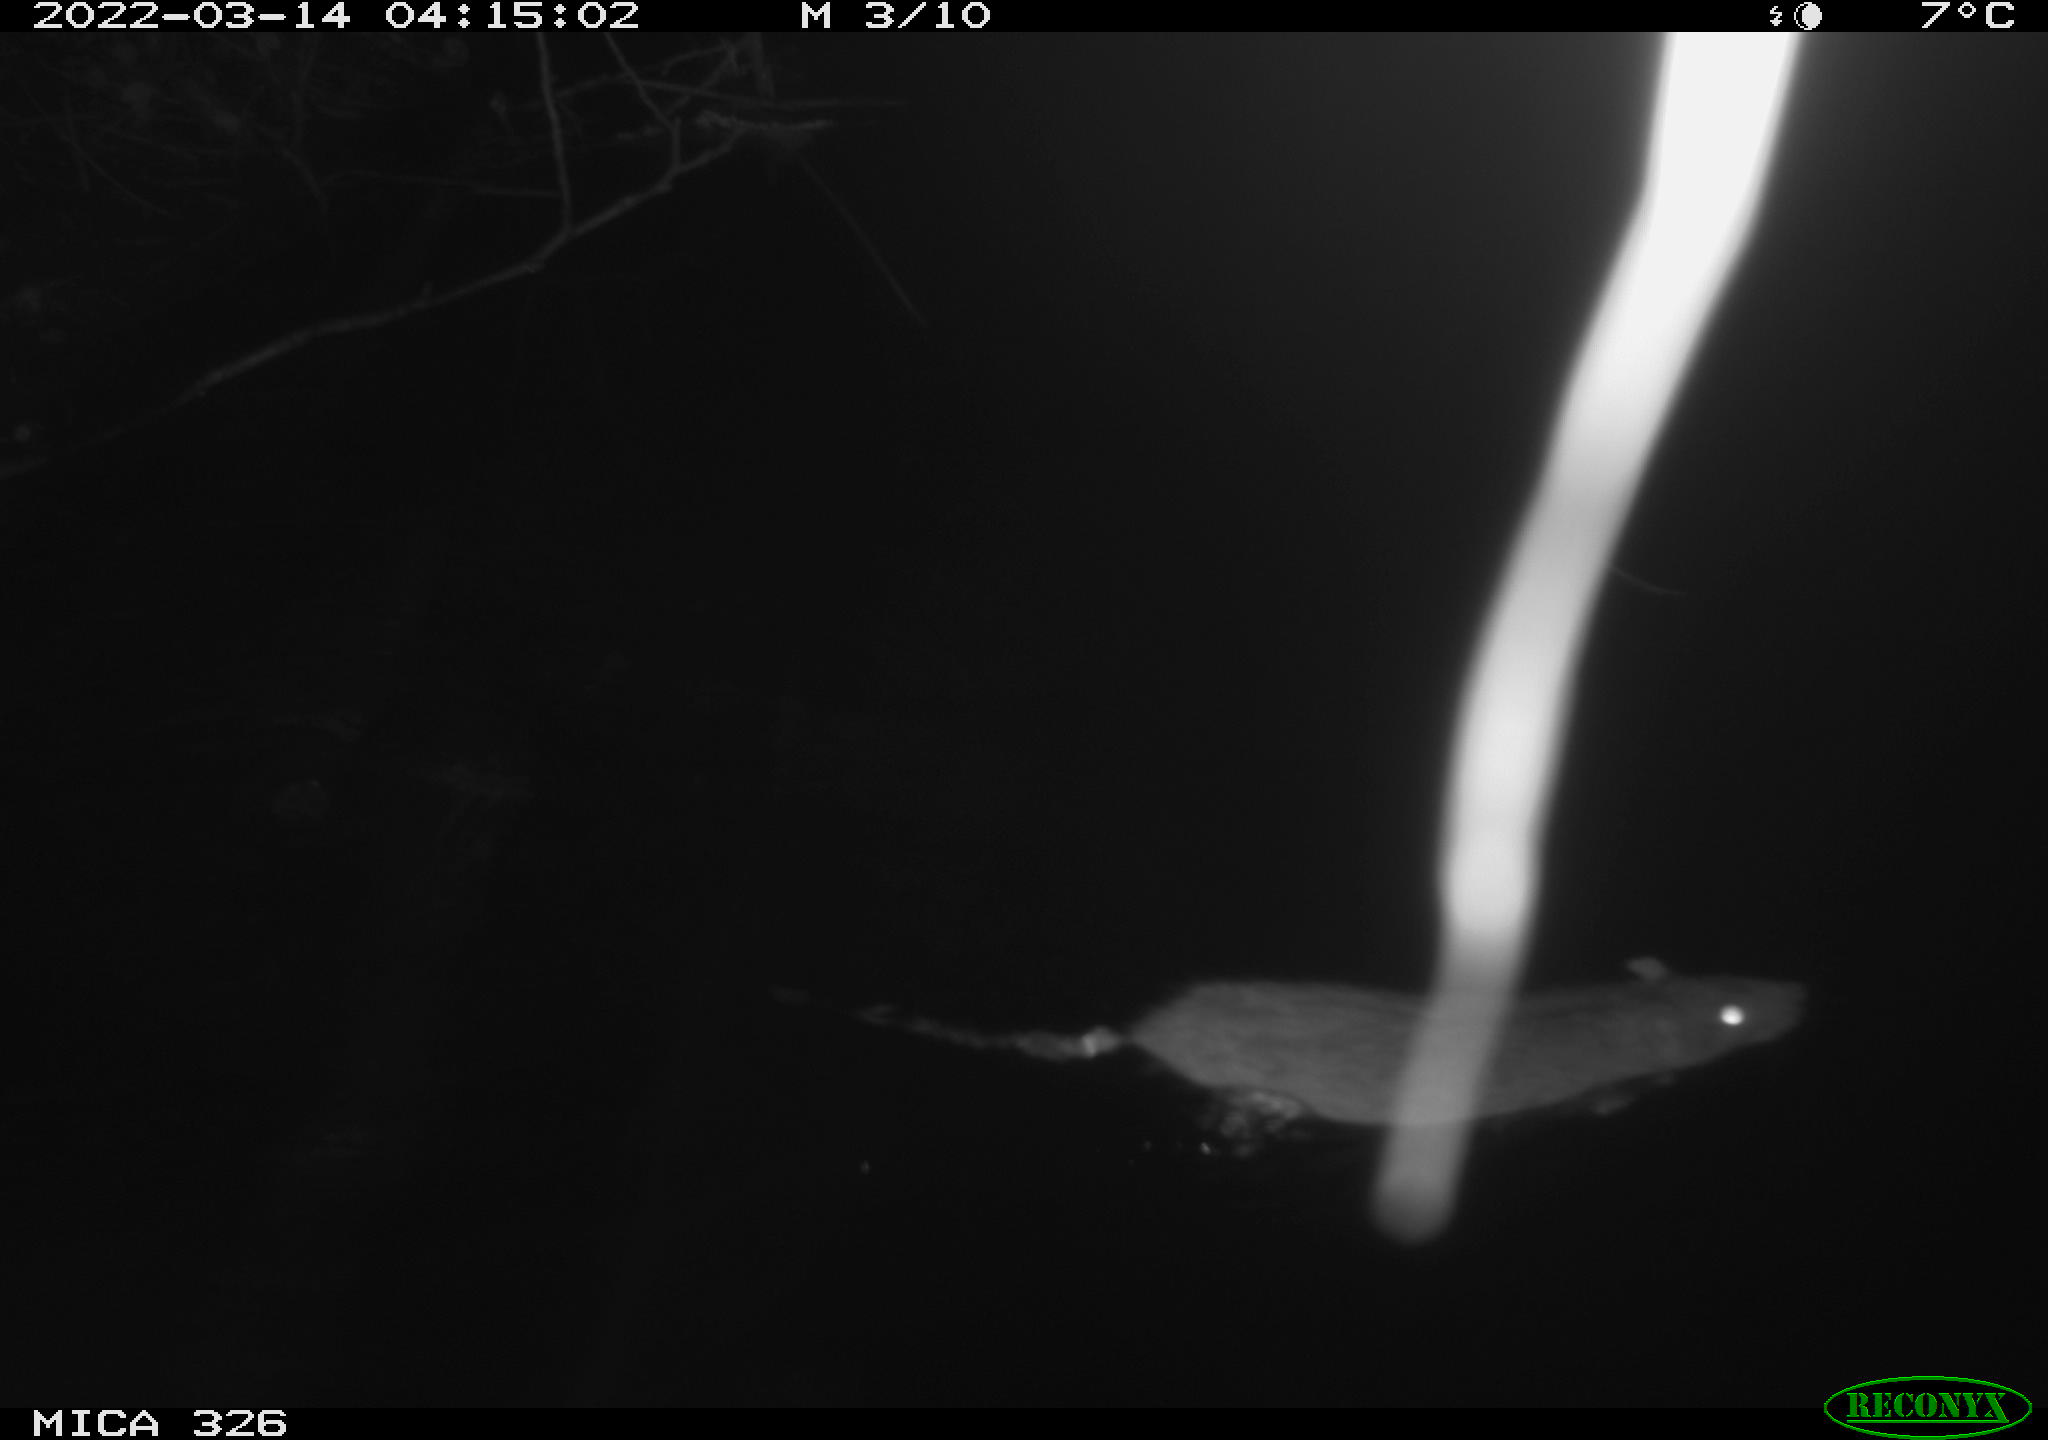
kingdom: Animalia
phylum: Chordata
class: Mammalia
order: Rodentia
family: Muridae
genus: Rattus
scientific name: Rattus norvegicus
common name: Brown rat
